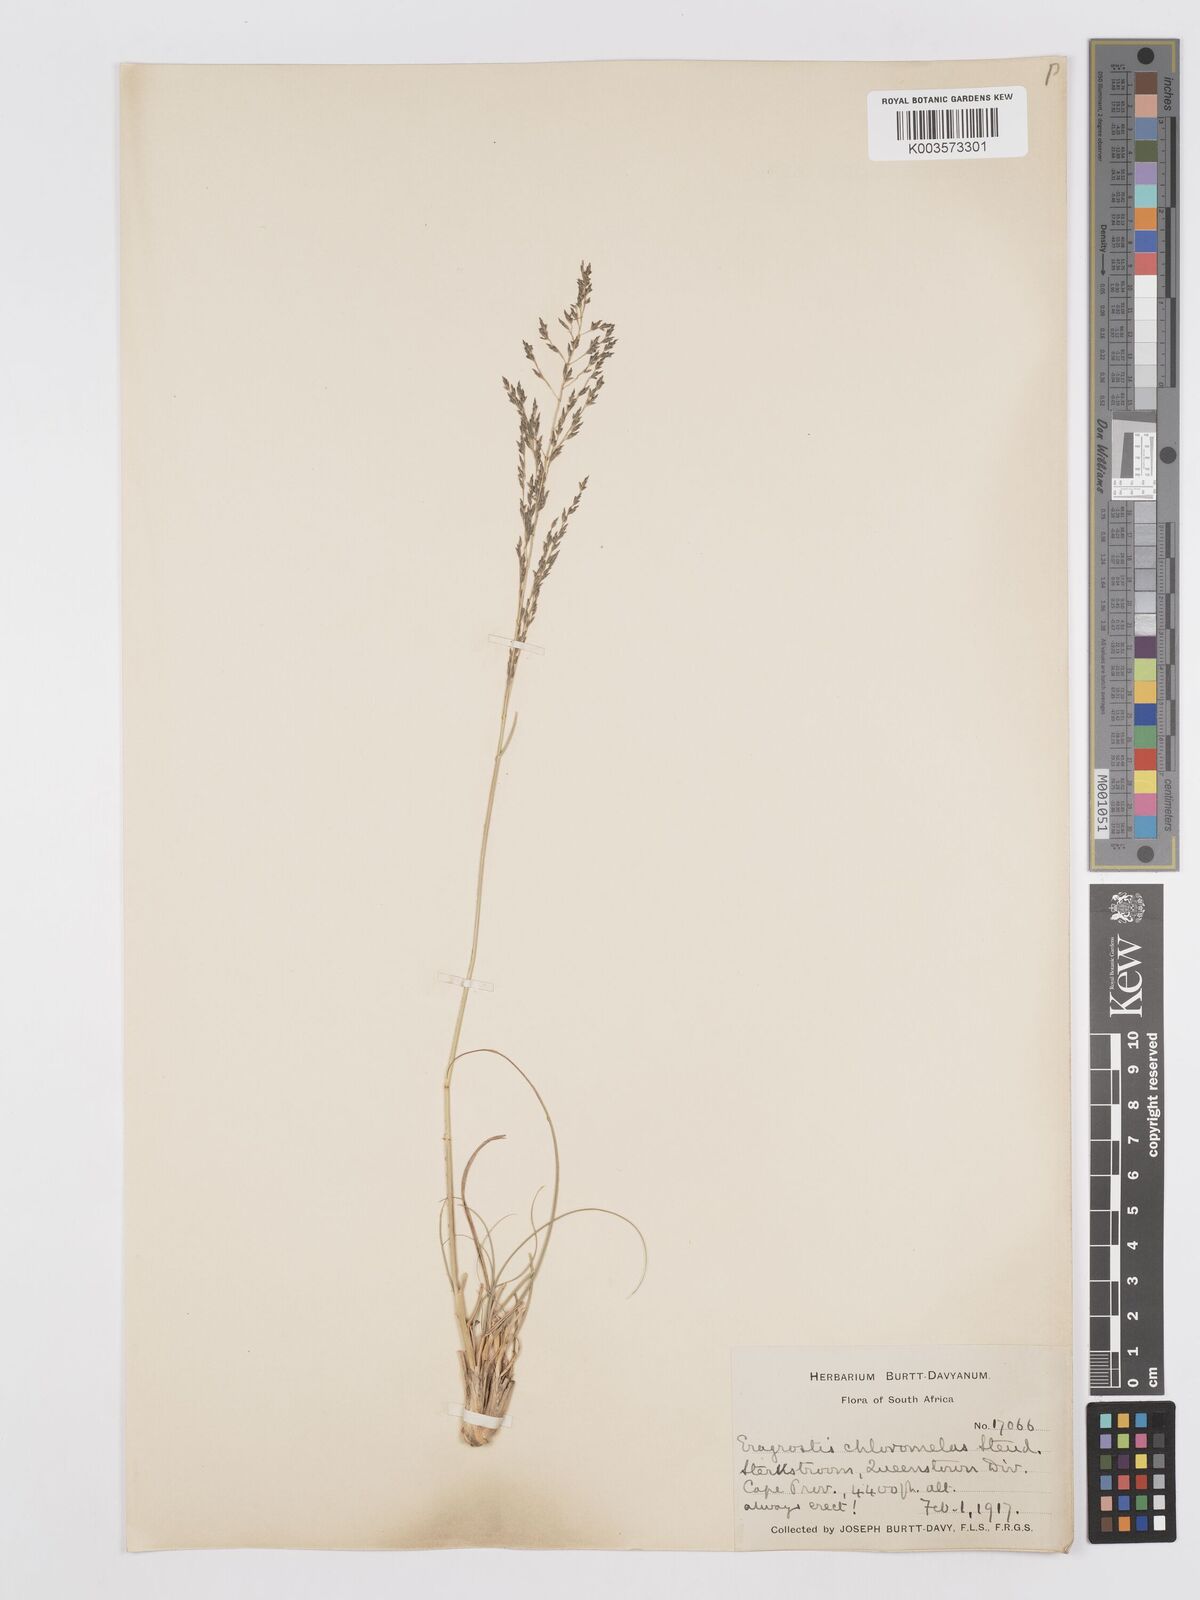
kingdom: Plantae
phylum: Tracheophyta
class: Liliopsida
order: Poales
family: Poaceae
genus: Eragrostis
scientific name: Eragrostis curvula
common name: African love-grass
